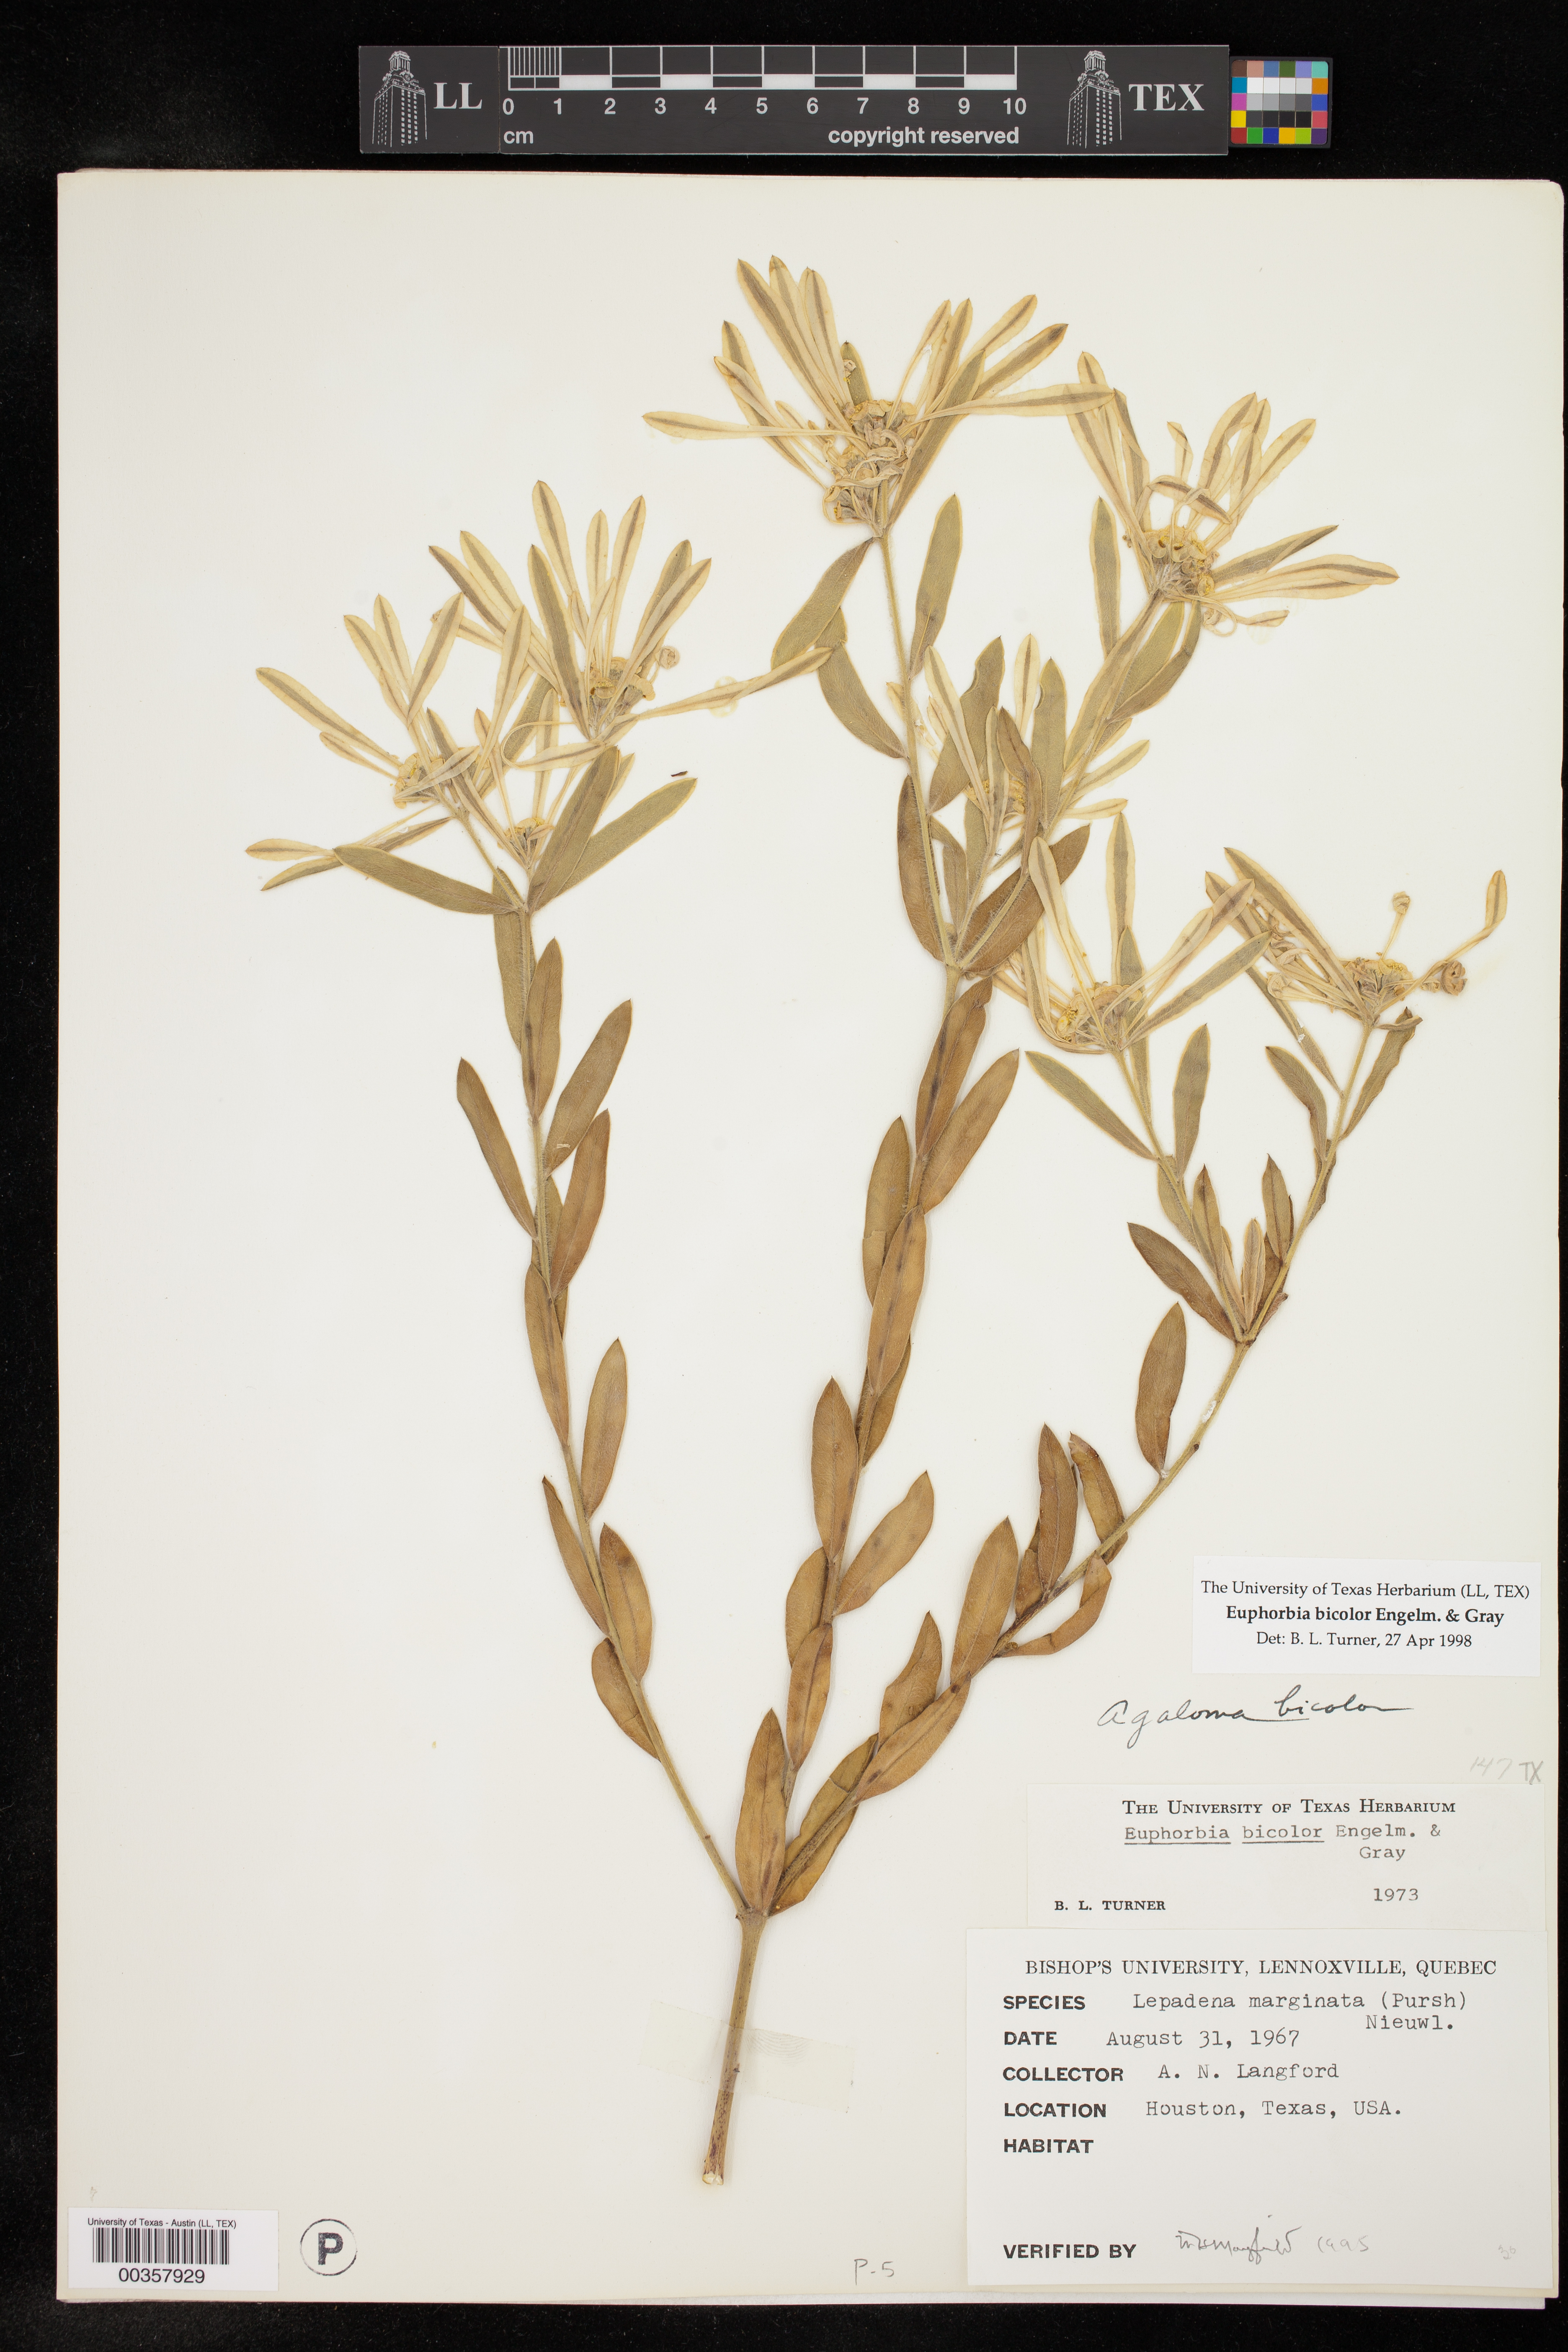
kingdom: Plantae
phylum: Tracheophyta
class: Magnoliopsida
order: Malpighiales
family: Euphorbiaceae
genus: Euphorbia
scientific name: Euphorbia bicolor
